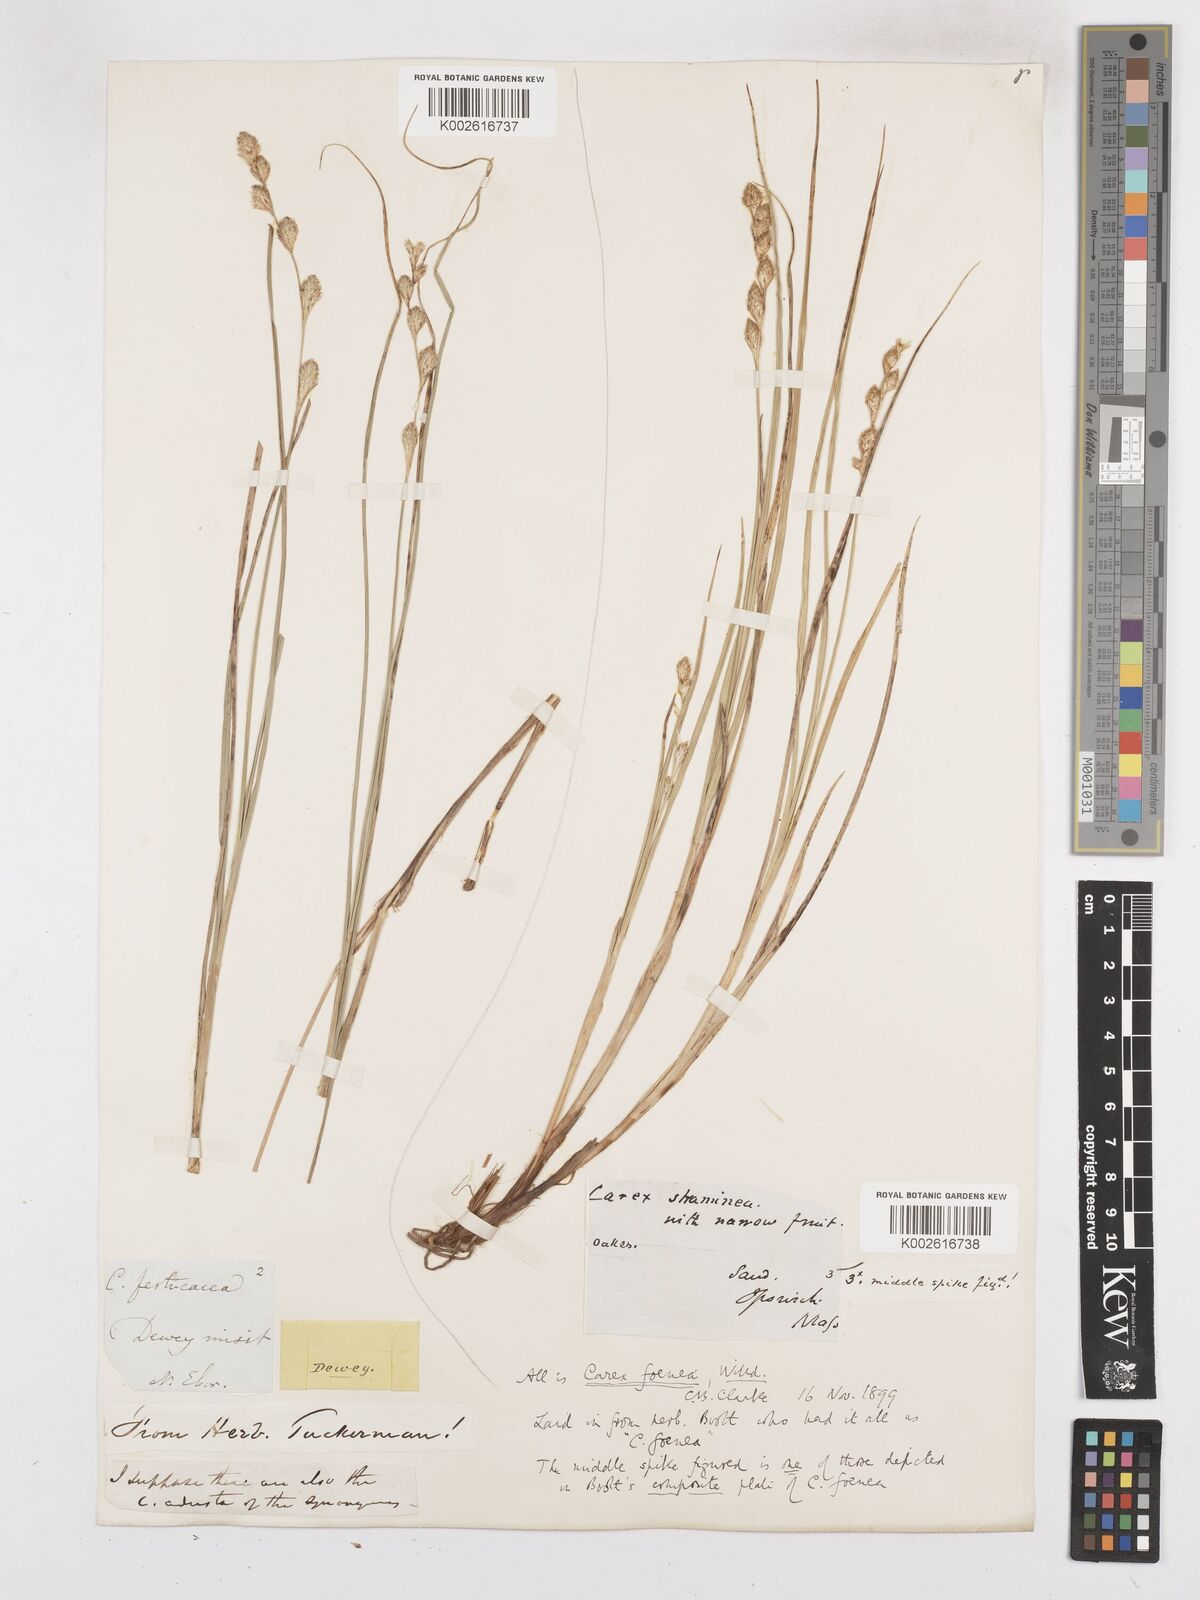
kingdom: Plantae
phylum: Tracheophyta
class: Liliopsida
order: Poales
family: Cyperaceae
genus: Carex
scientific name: Carex argyrantha
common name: Silvery-flowered sedge
